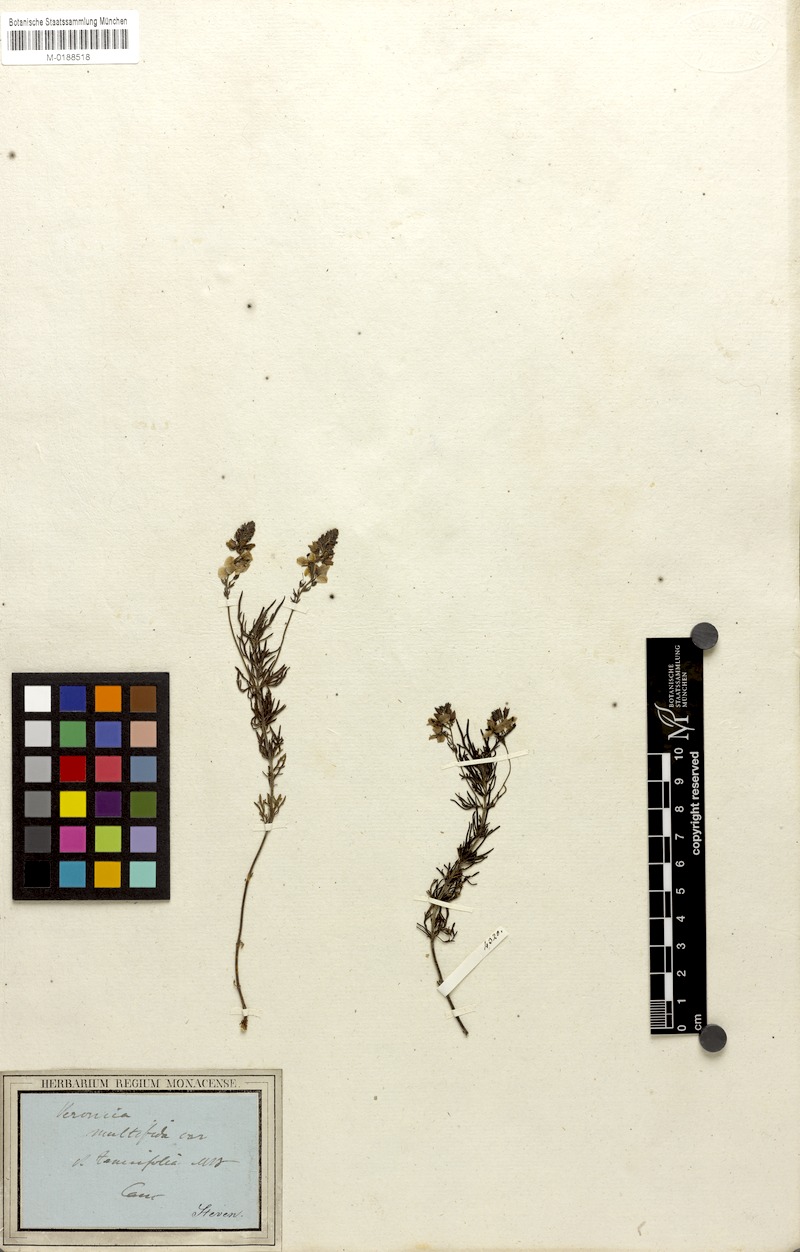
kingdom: Plantae
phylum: Tracheophyta
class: Magnoliopsida
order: Lamiales
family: Plantaginaceae
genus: Veronica
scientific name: Veronica multifida
